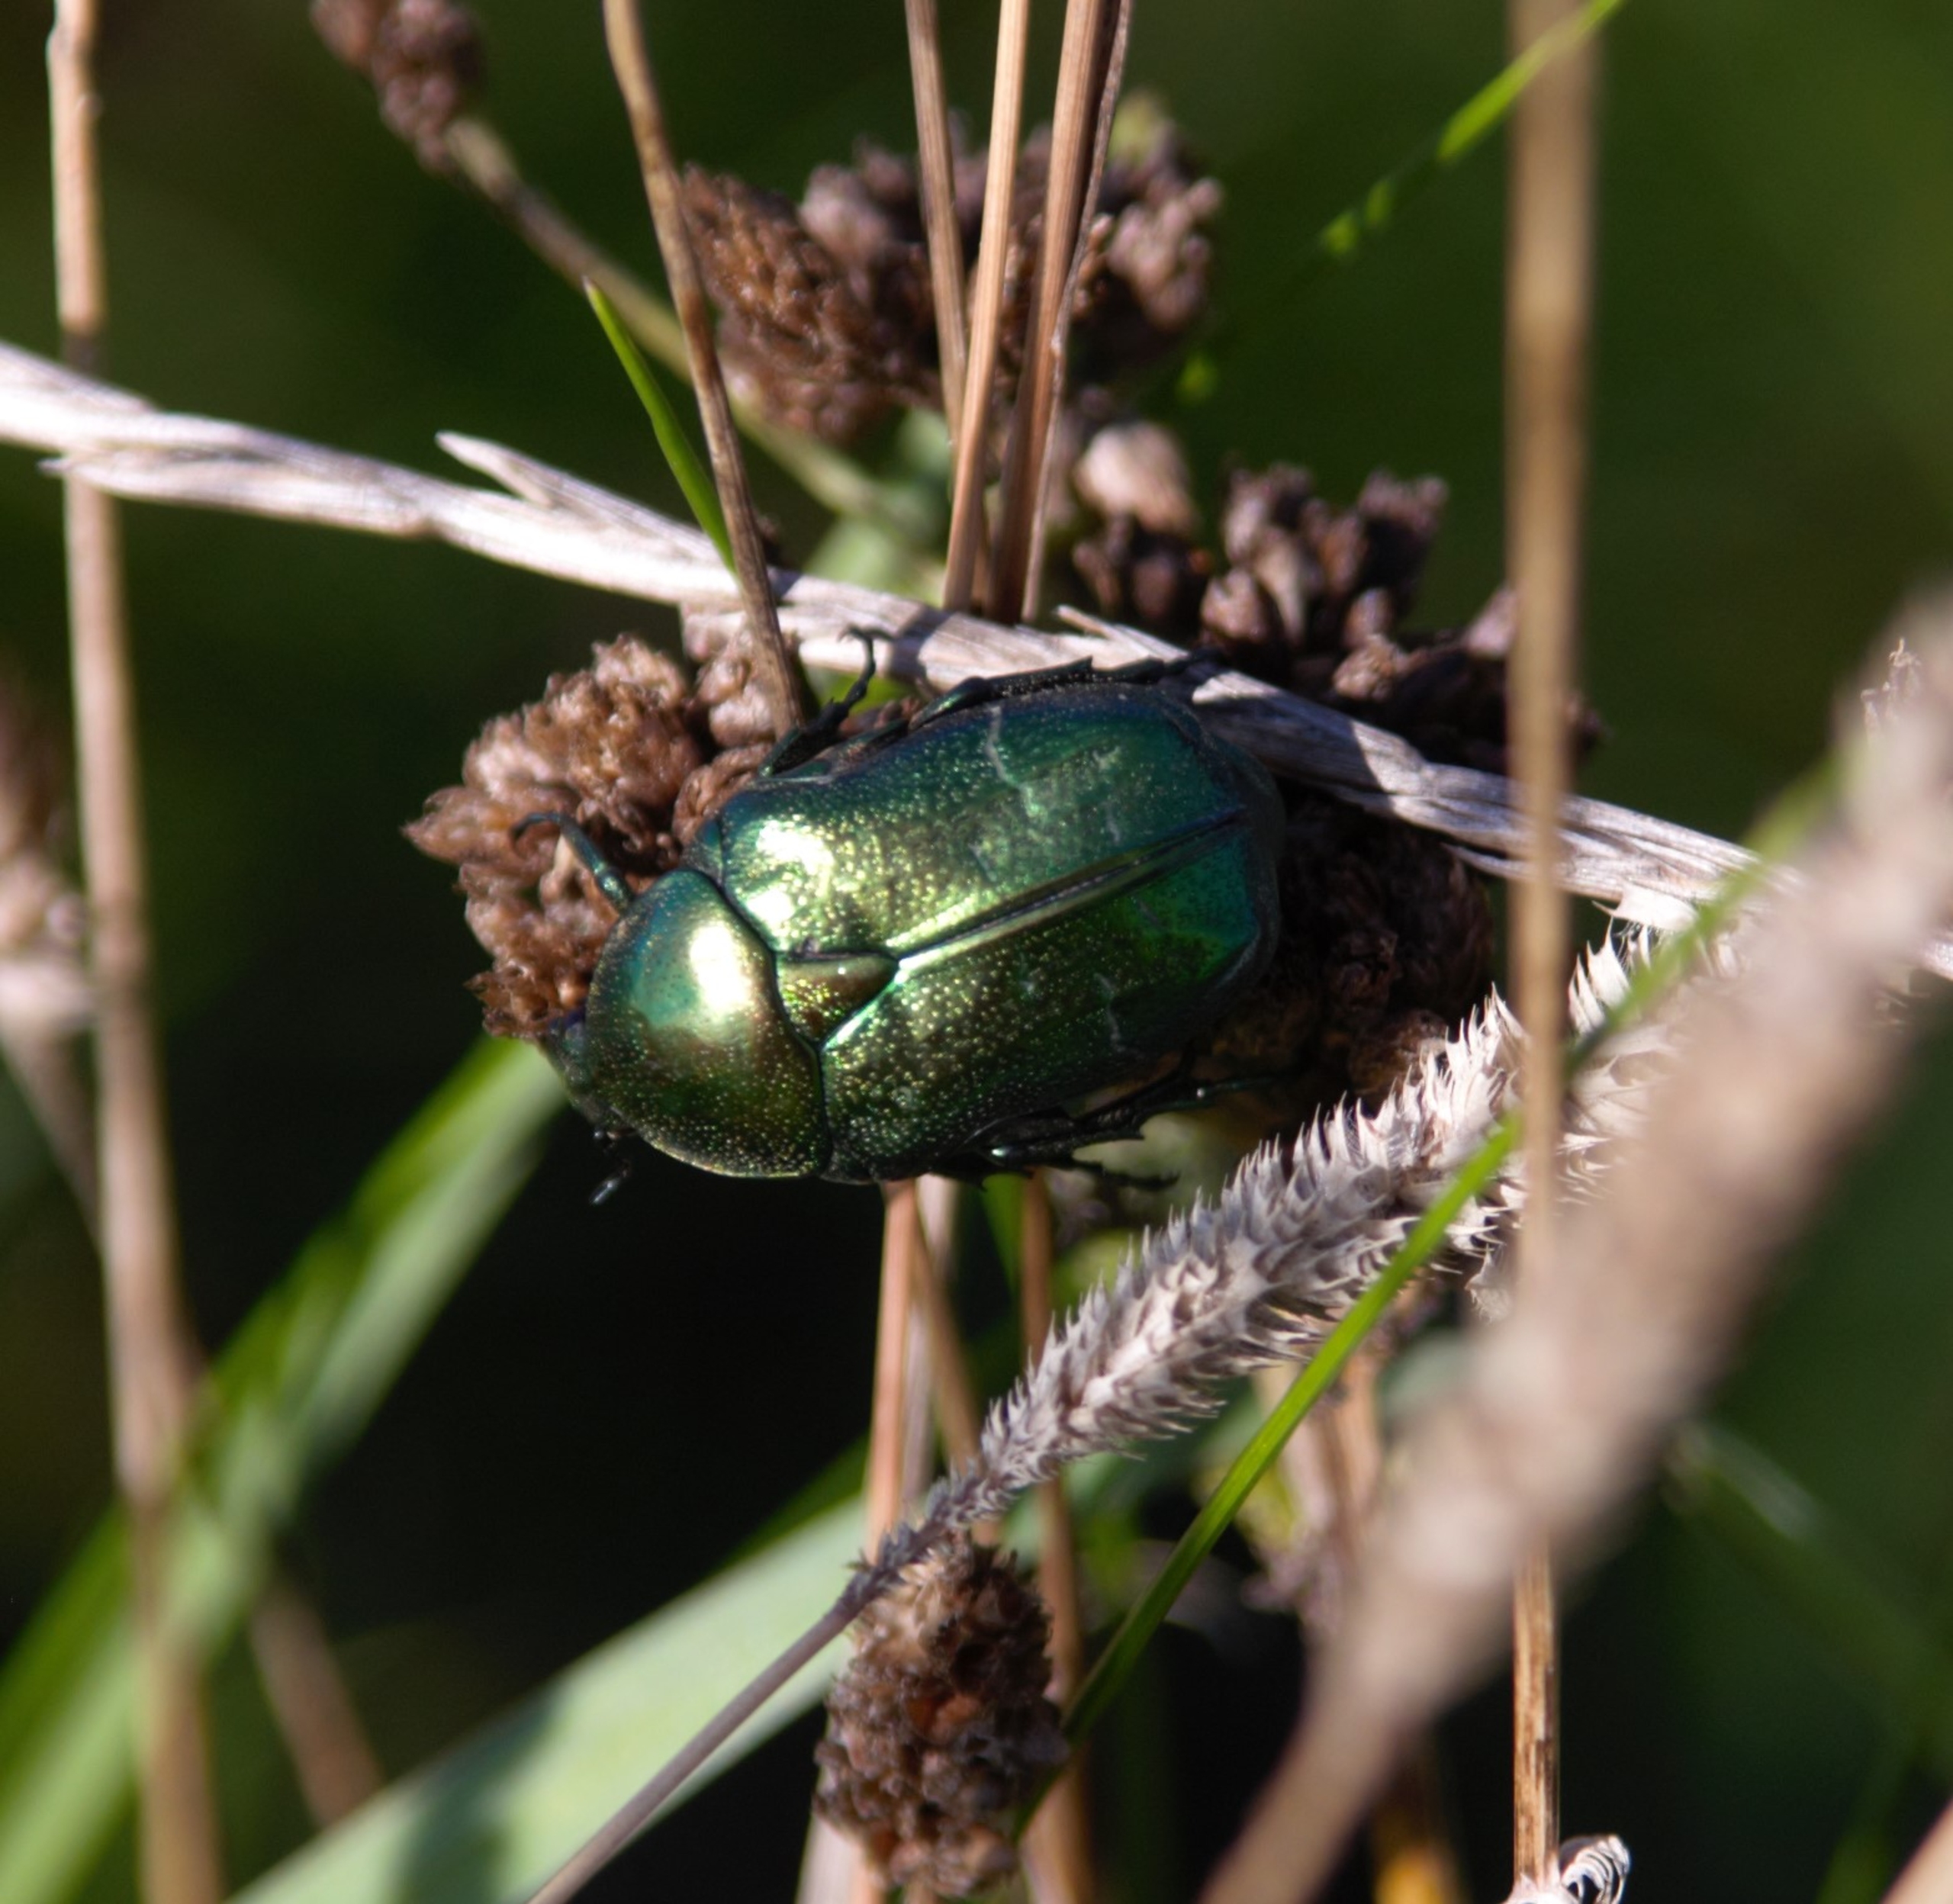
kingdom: Animalia
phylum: Arthropoda
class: Insecta
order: Coleoptera
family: Scarabaeidae
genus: Cetonia
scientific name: Cetonia aurata
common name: Grøn guldbasse
